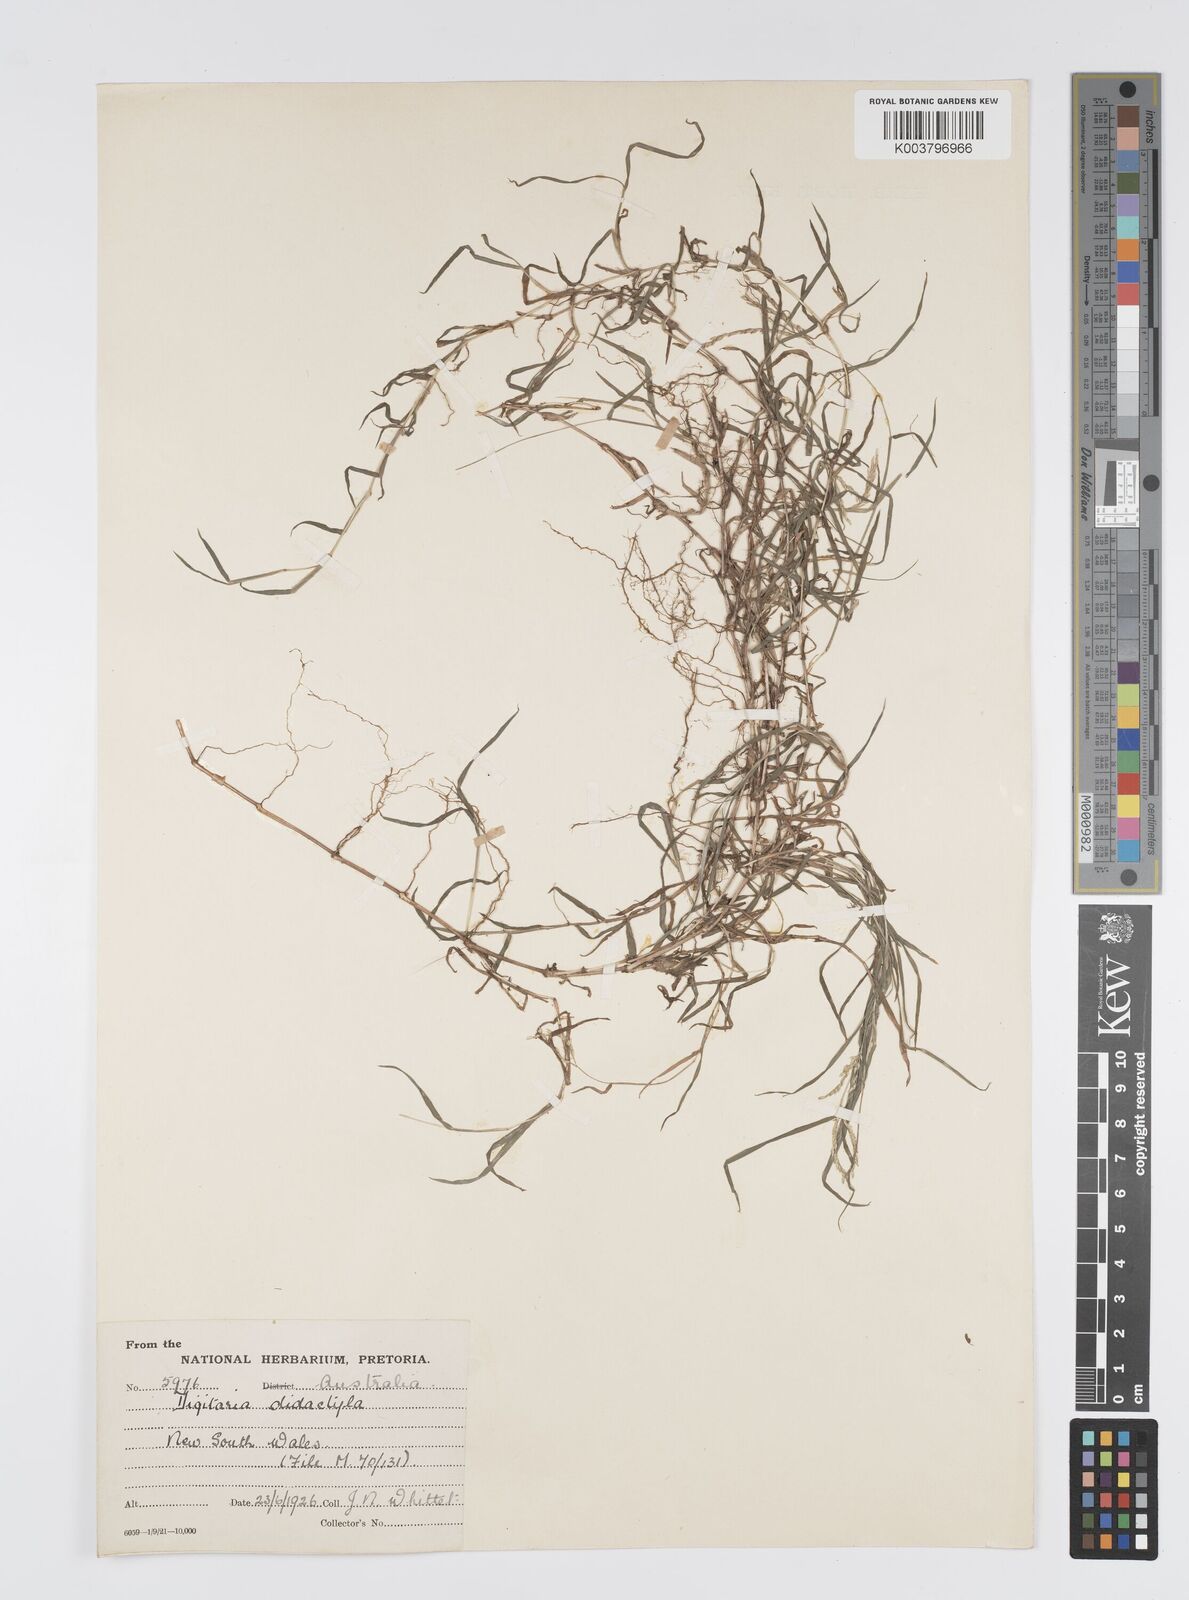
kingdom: Plantae
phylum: Tracheophyta
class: Liliopsida
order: Poales
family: Poaceae
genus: Digitaria
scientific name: Digitaria didactyla
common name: Blue couch
